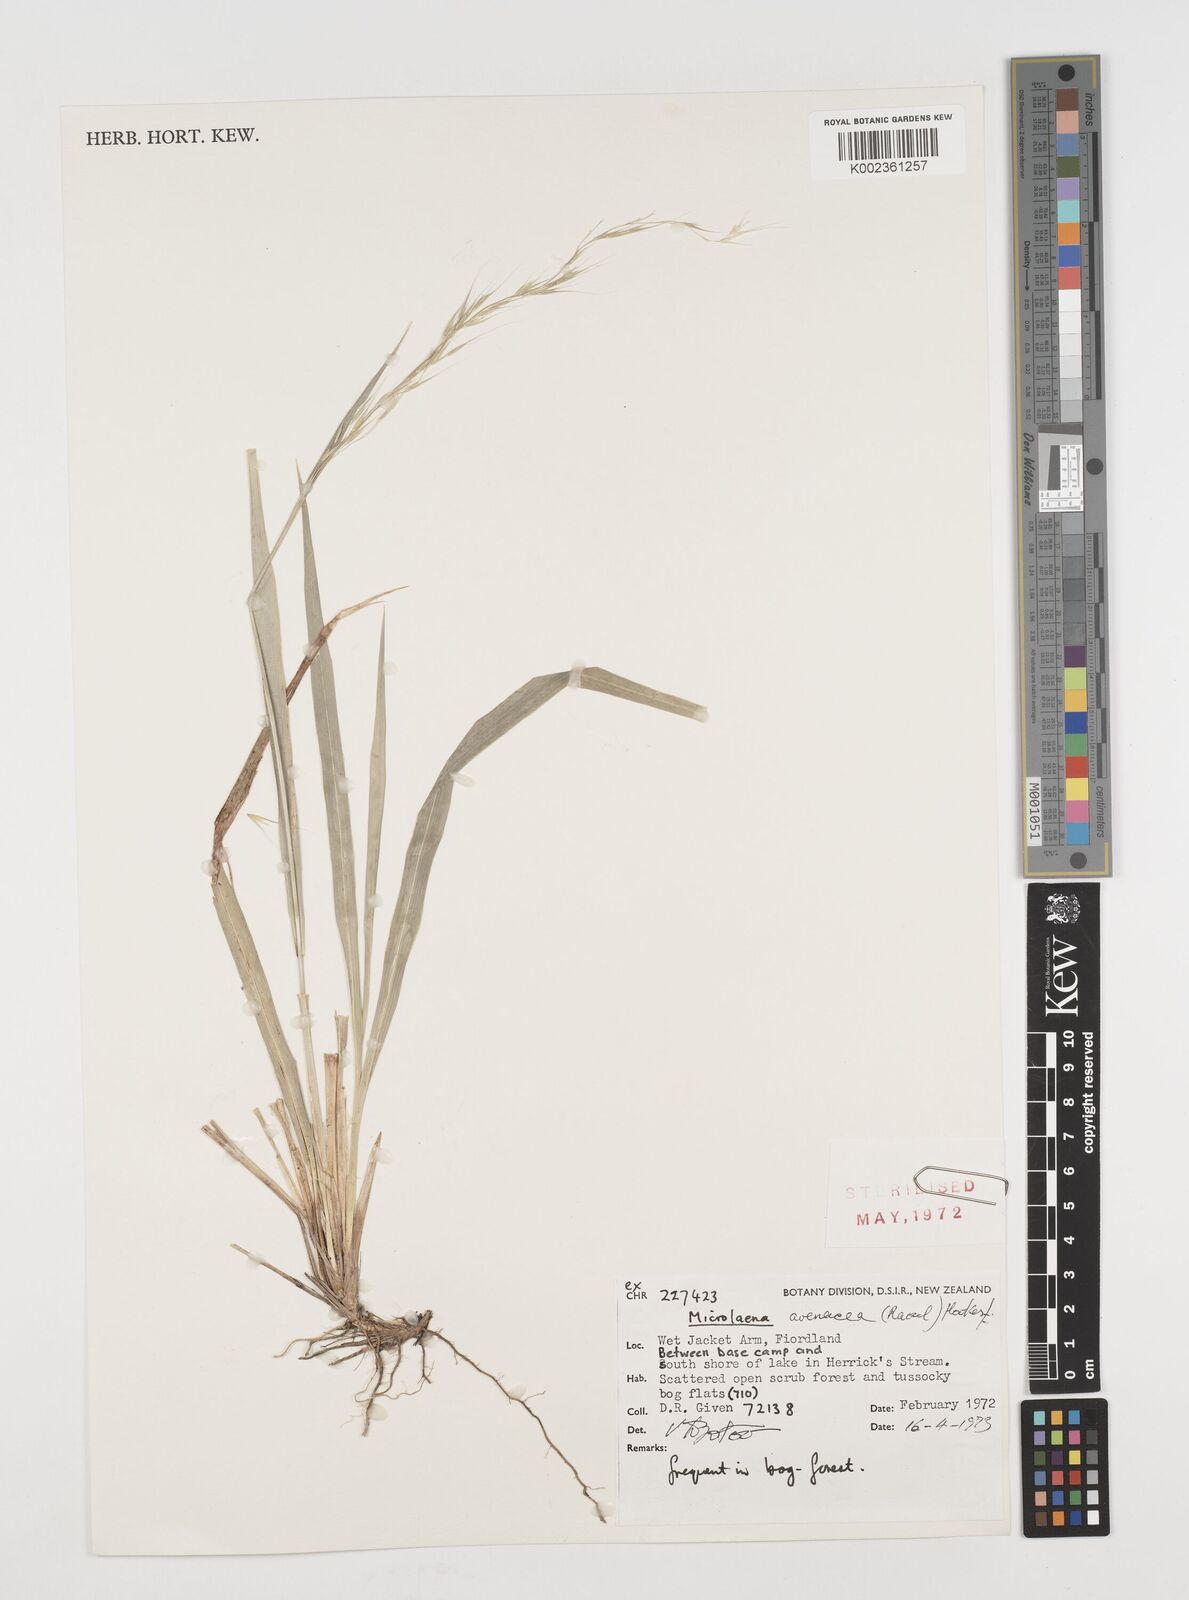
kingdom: Plantae
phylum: Tracheophyta
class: Liliopsida
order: Poales
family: Poaceae
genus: Ehrharta
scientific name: Ehrharta diplax
